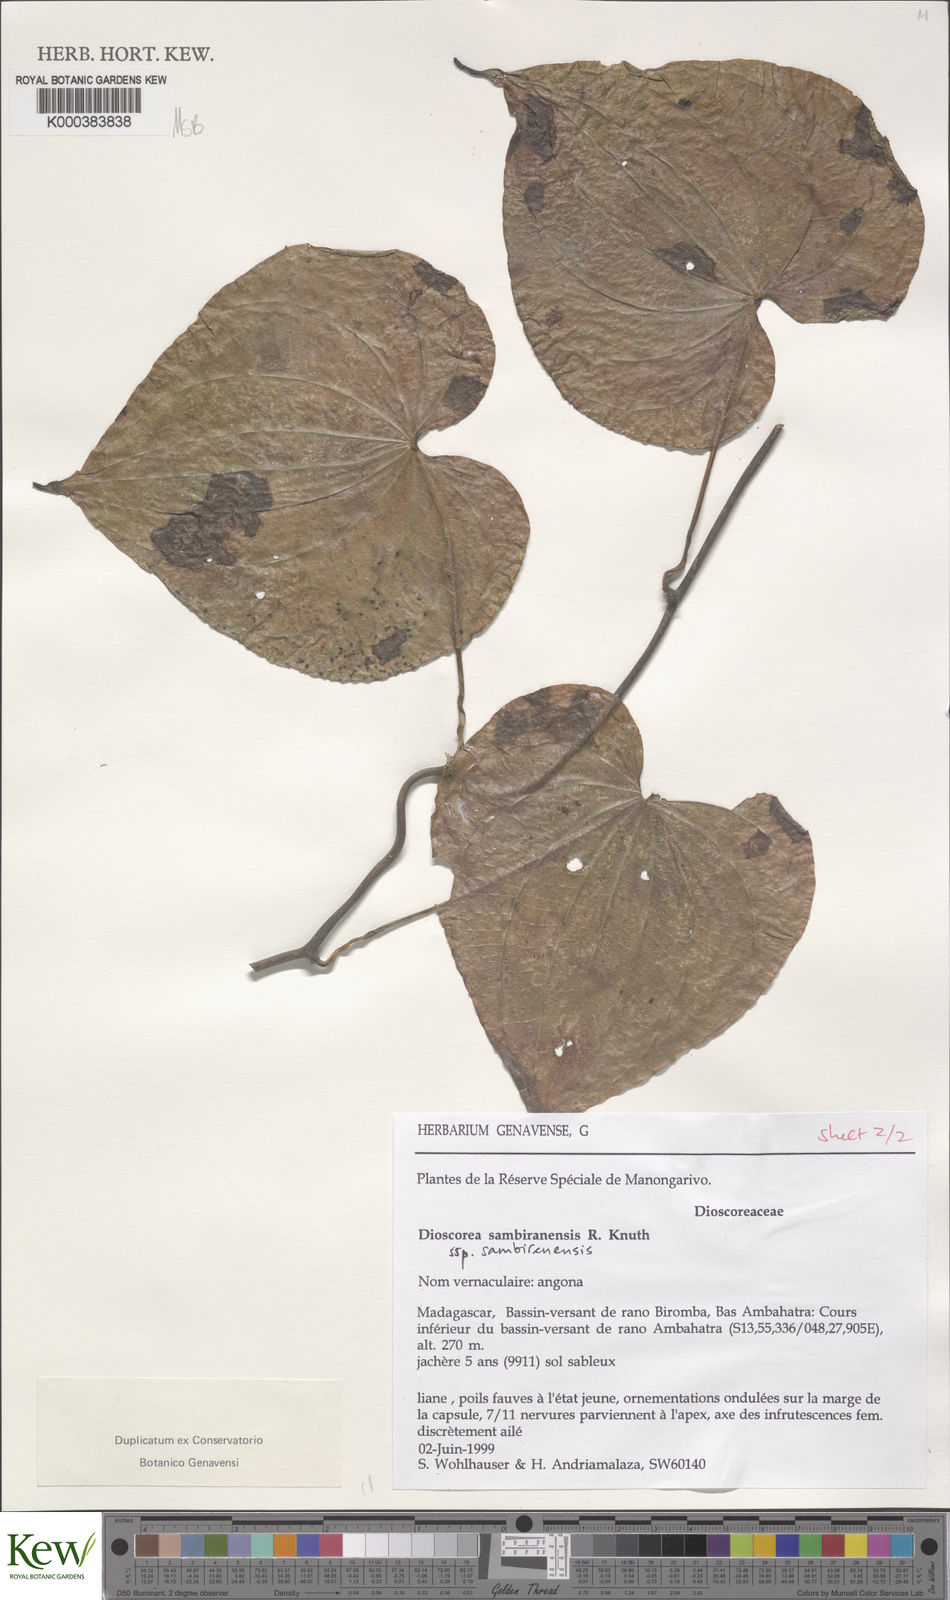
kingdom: Plantae
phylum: Tracheophyta
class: Liliopsida
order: Dioscoreales
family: Dioscoreaceae
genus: Dioscorea
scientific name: Dioscorea sambiranensis
